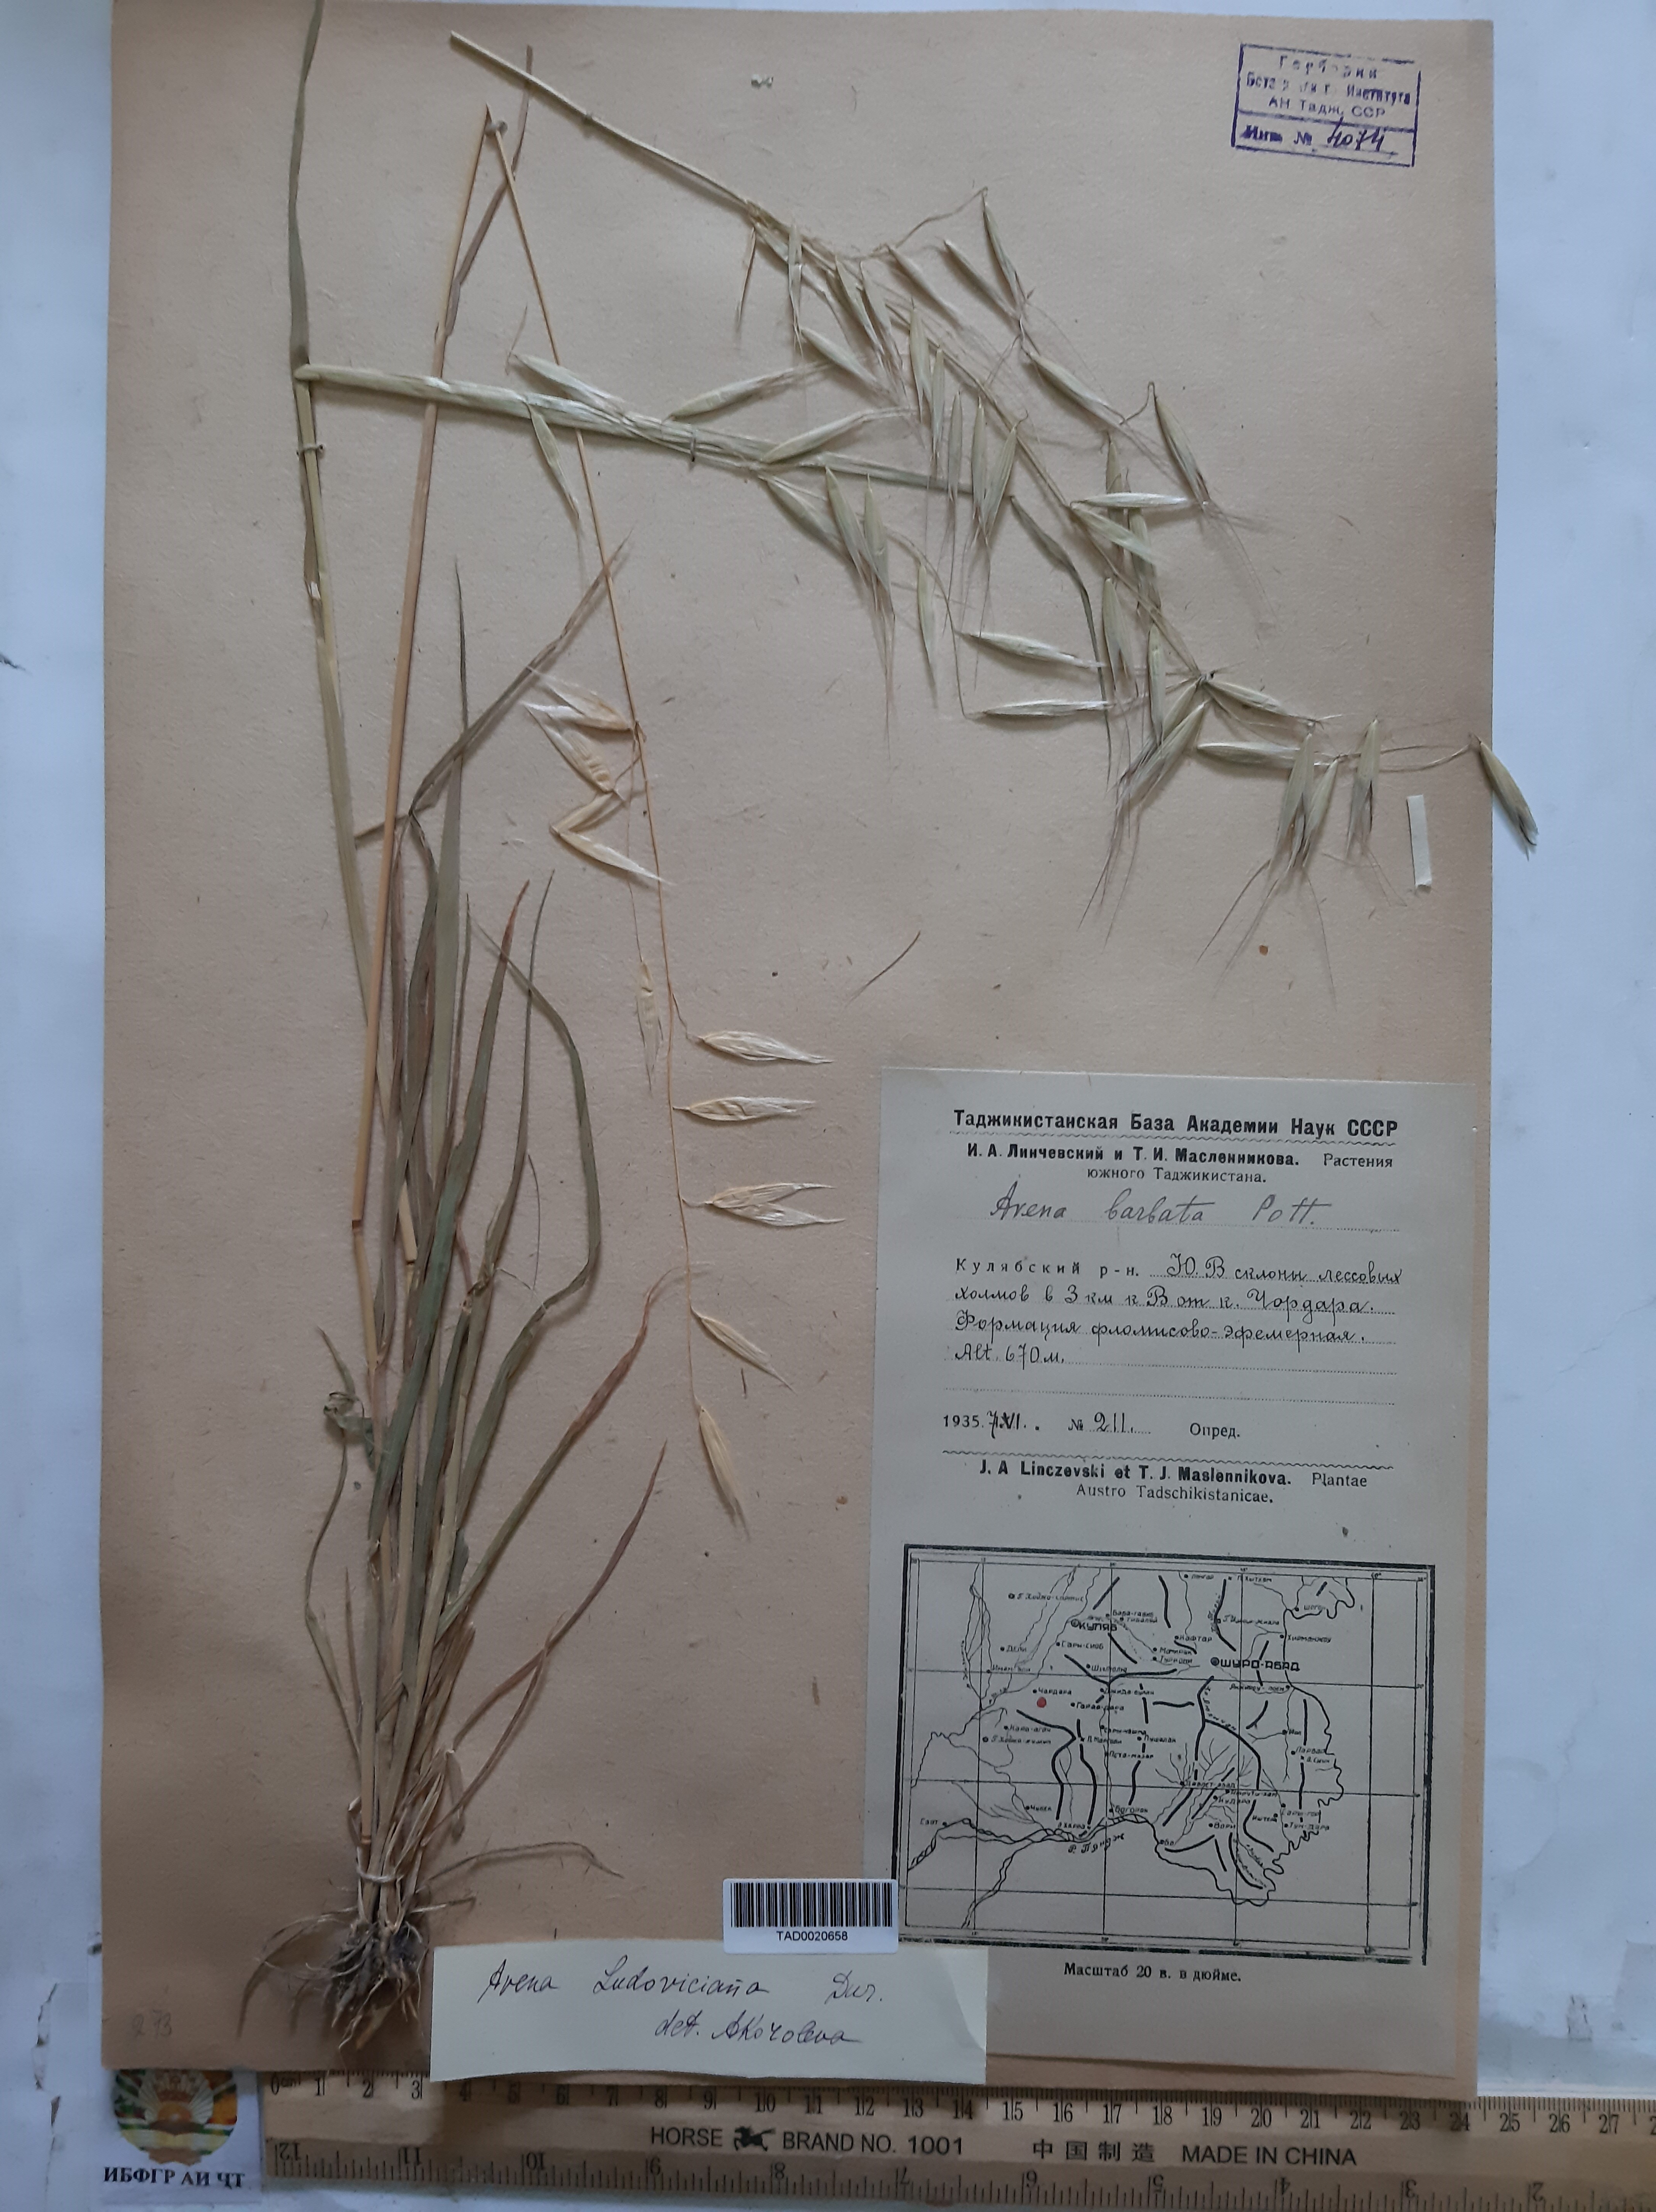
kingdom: Plantae
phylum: Tracheophyta
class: Liliopsida
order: Poales
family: Poaceae
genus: Avena
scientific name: Avena sterilis
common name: Animated oat
